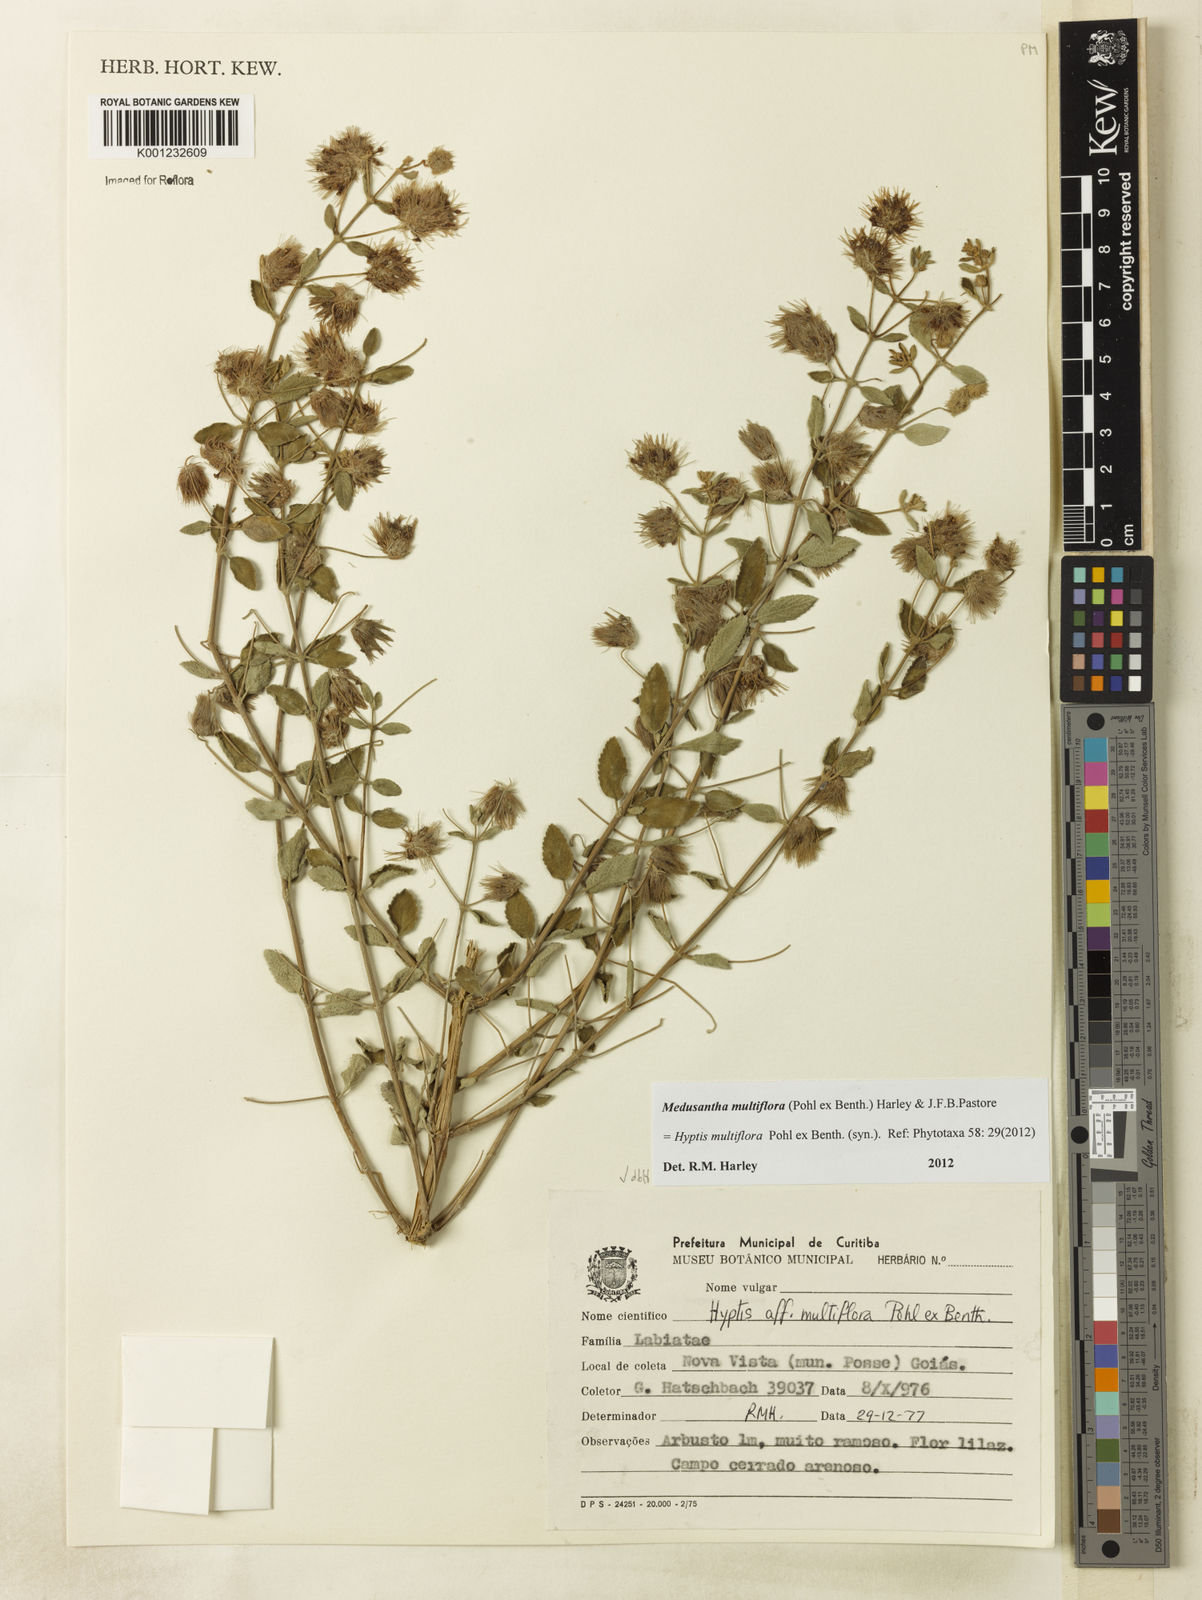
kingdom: Plantae
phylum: Tracheophyta
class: Magnoliopsida
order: Lamiales
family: Lamiaceae
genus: Medusantha
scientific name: Medusantha multiflora
